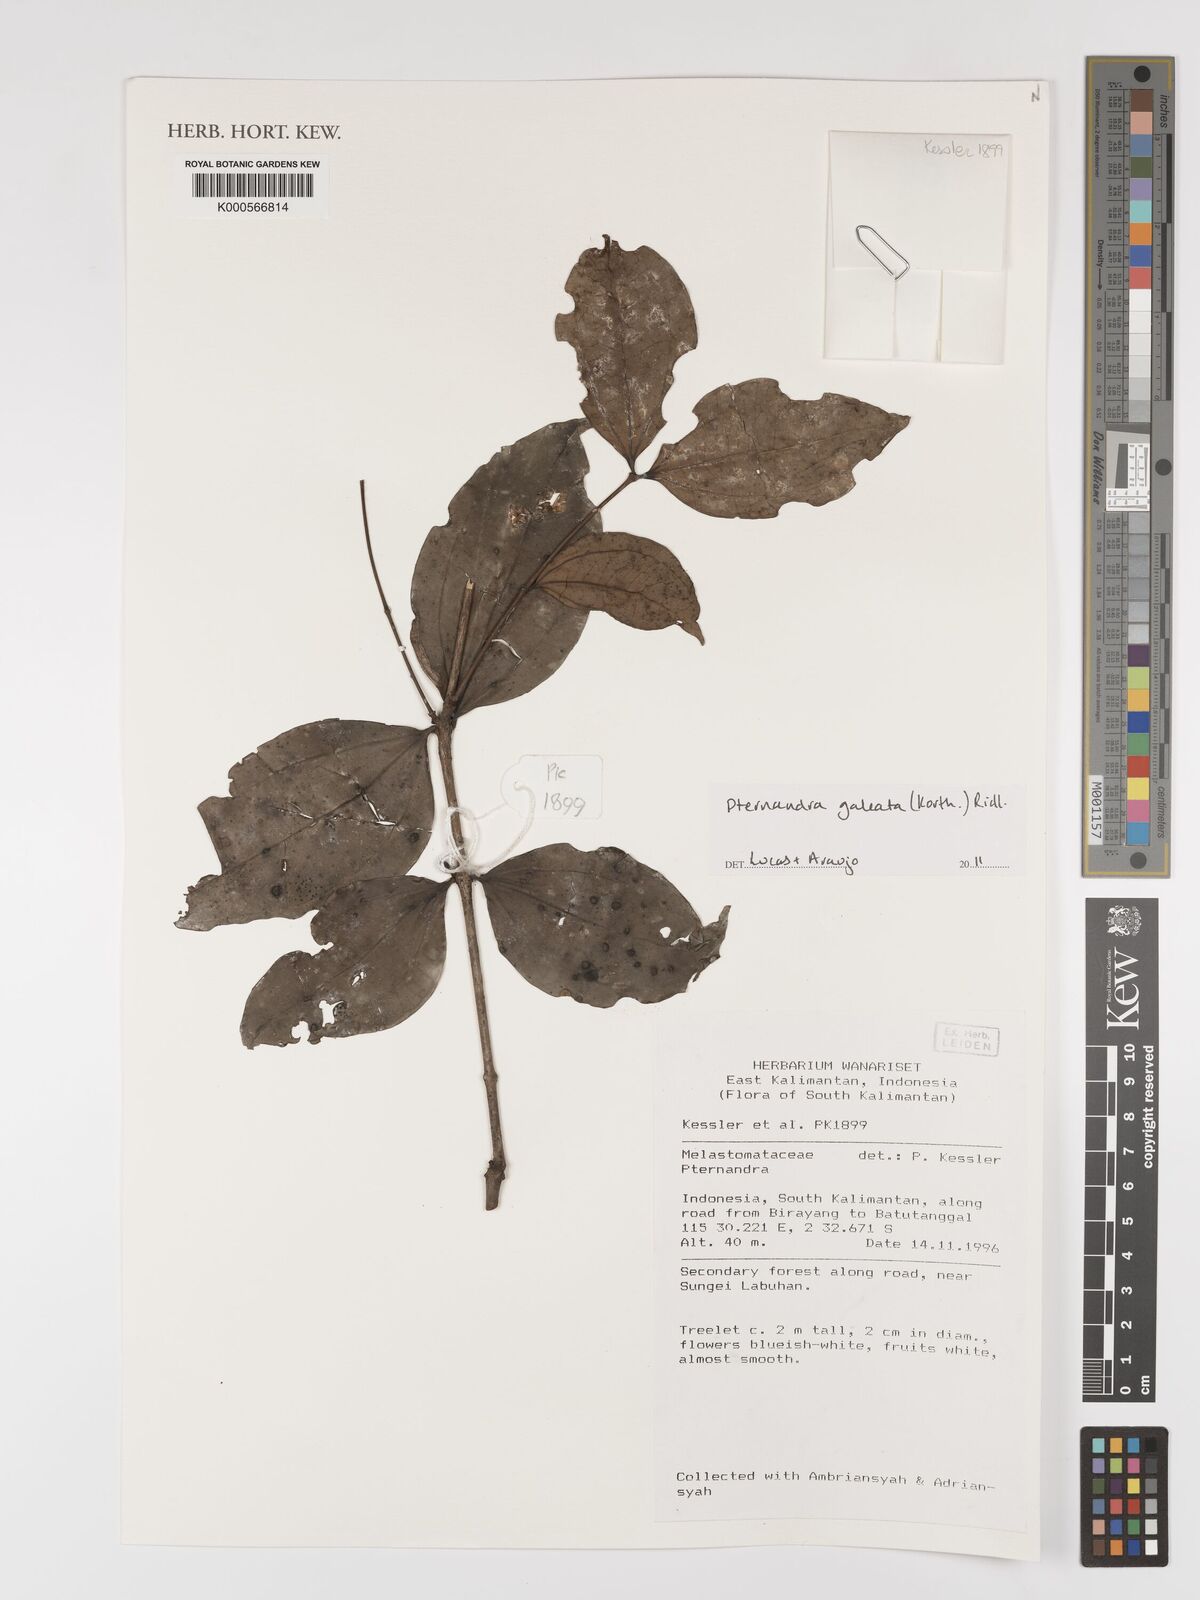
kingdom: Plantae
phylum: Tracheophyta
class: Magnoliopsida
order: Myrtales
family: Melastomataceae
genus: Pternandra
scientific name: Pternandra galeata
